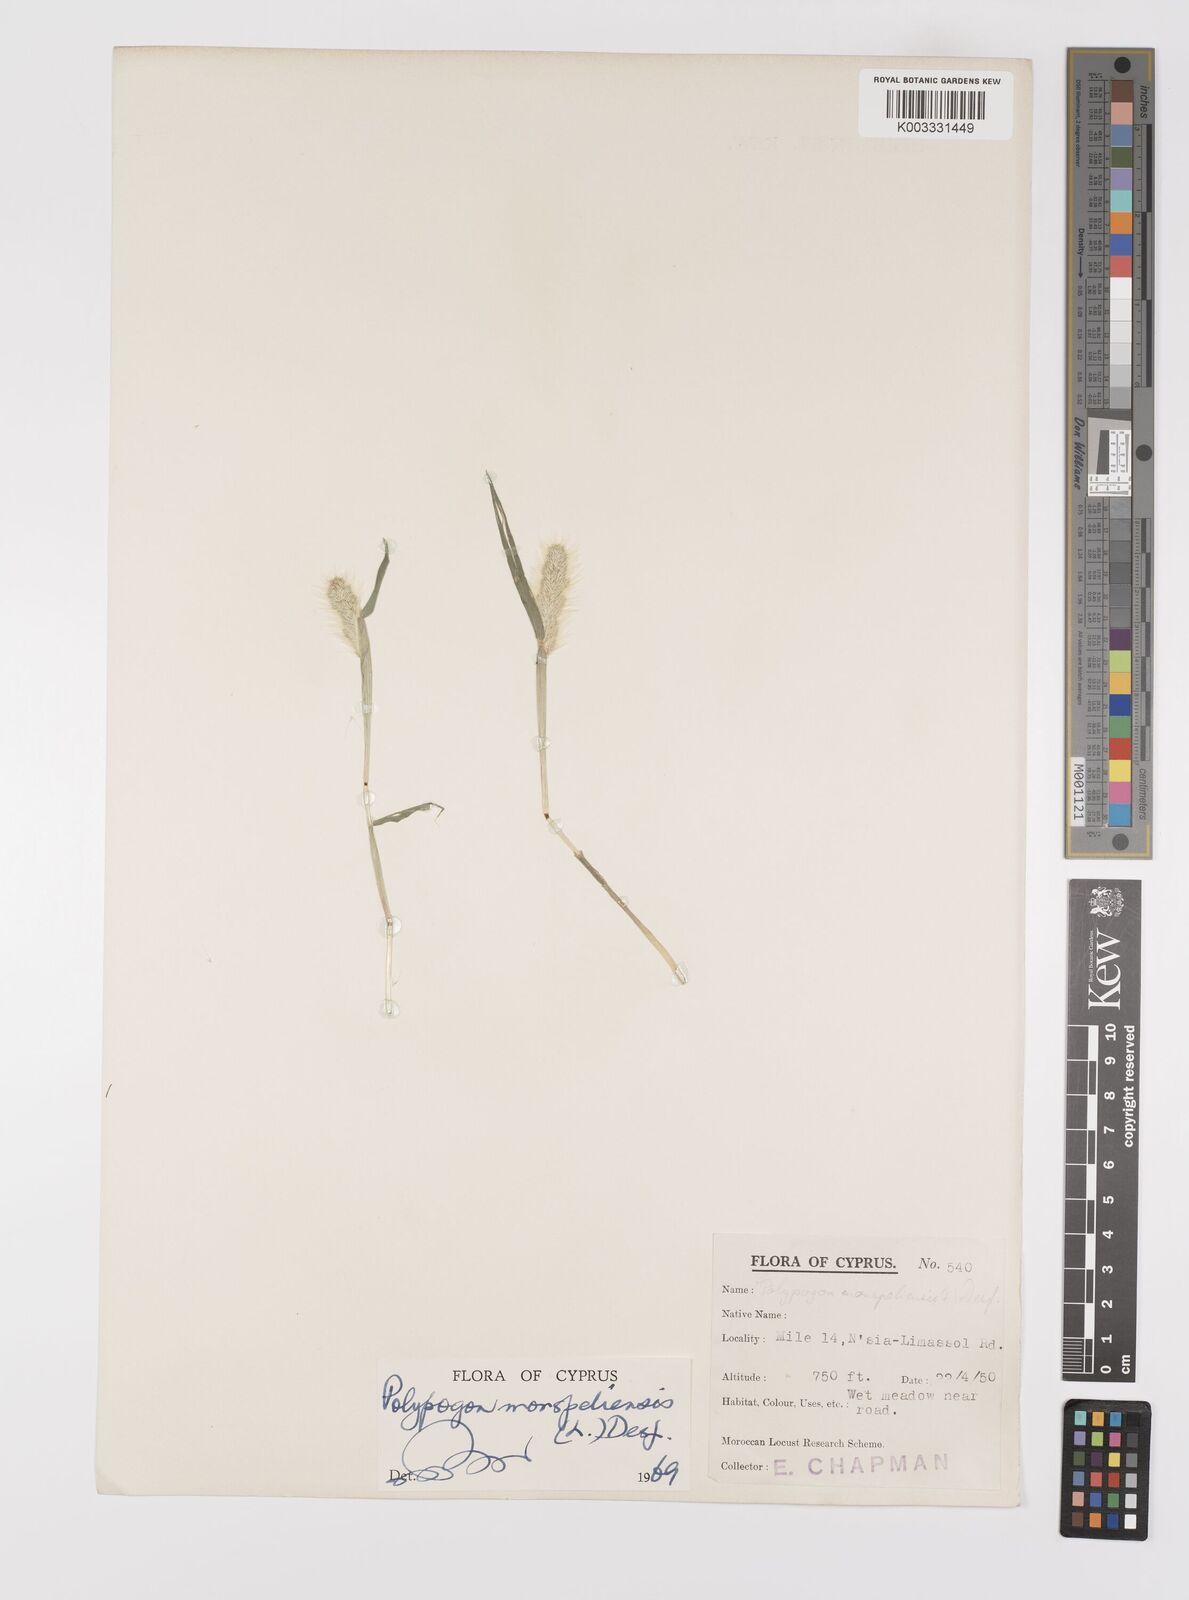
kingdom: Plantae
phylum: Tracheophyta
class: Liliopsida
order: Poales
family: Poaceae
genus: Polypogon
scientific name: Polypogon maritimus
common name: Mediterranean rabbitsfoot grass
